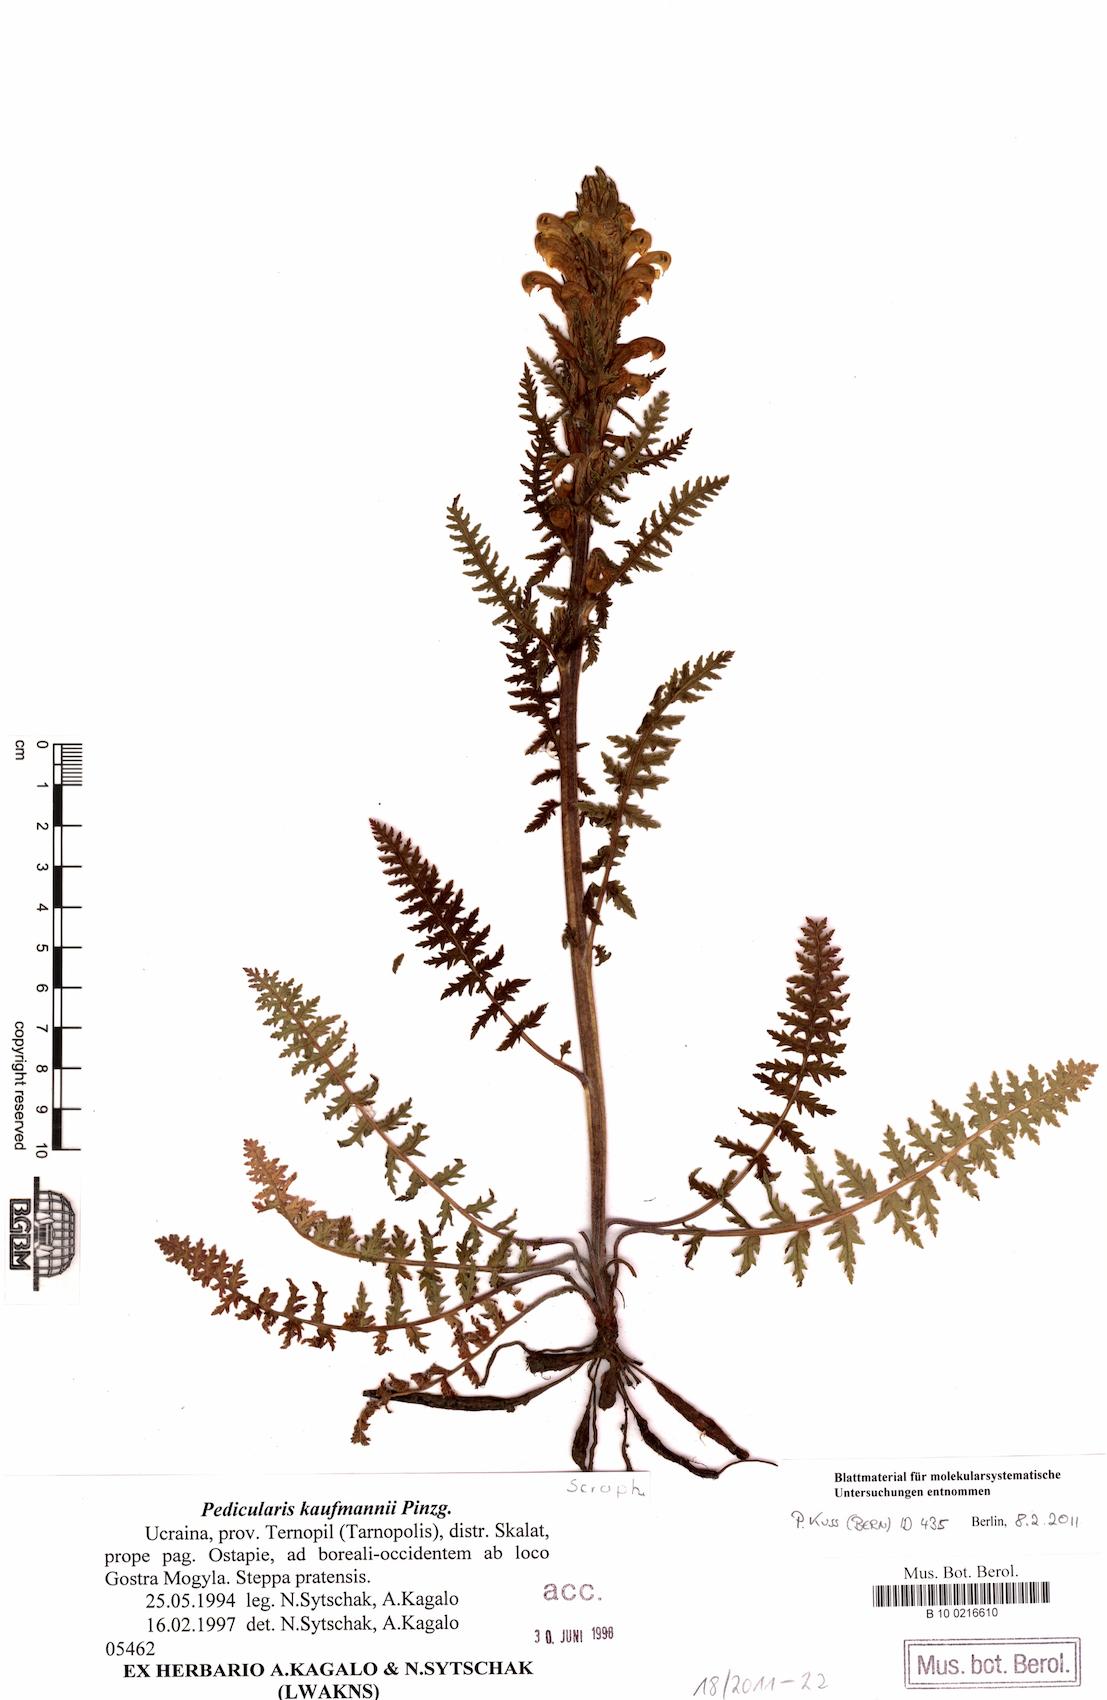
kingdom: Plantae
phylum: Tracheophyta
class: Magnoliopsida
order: Lamiales
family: Orobanchaceae
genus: Pedicularis
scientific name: Pedicularis kaufmannii
